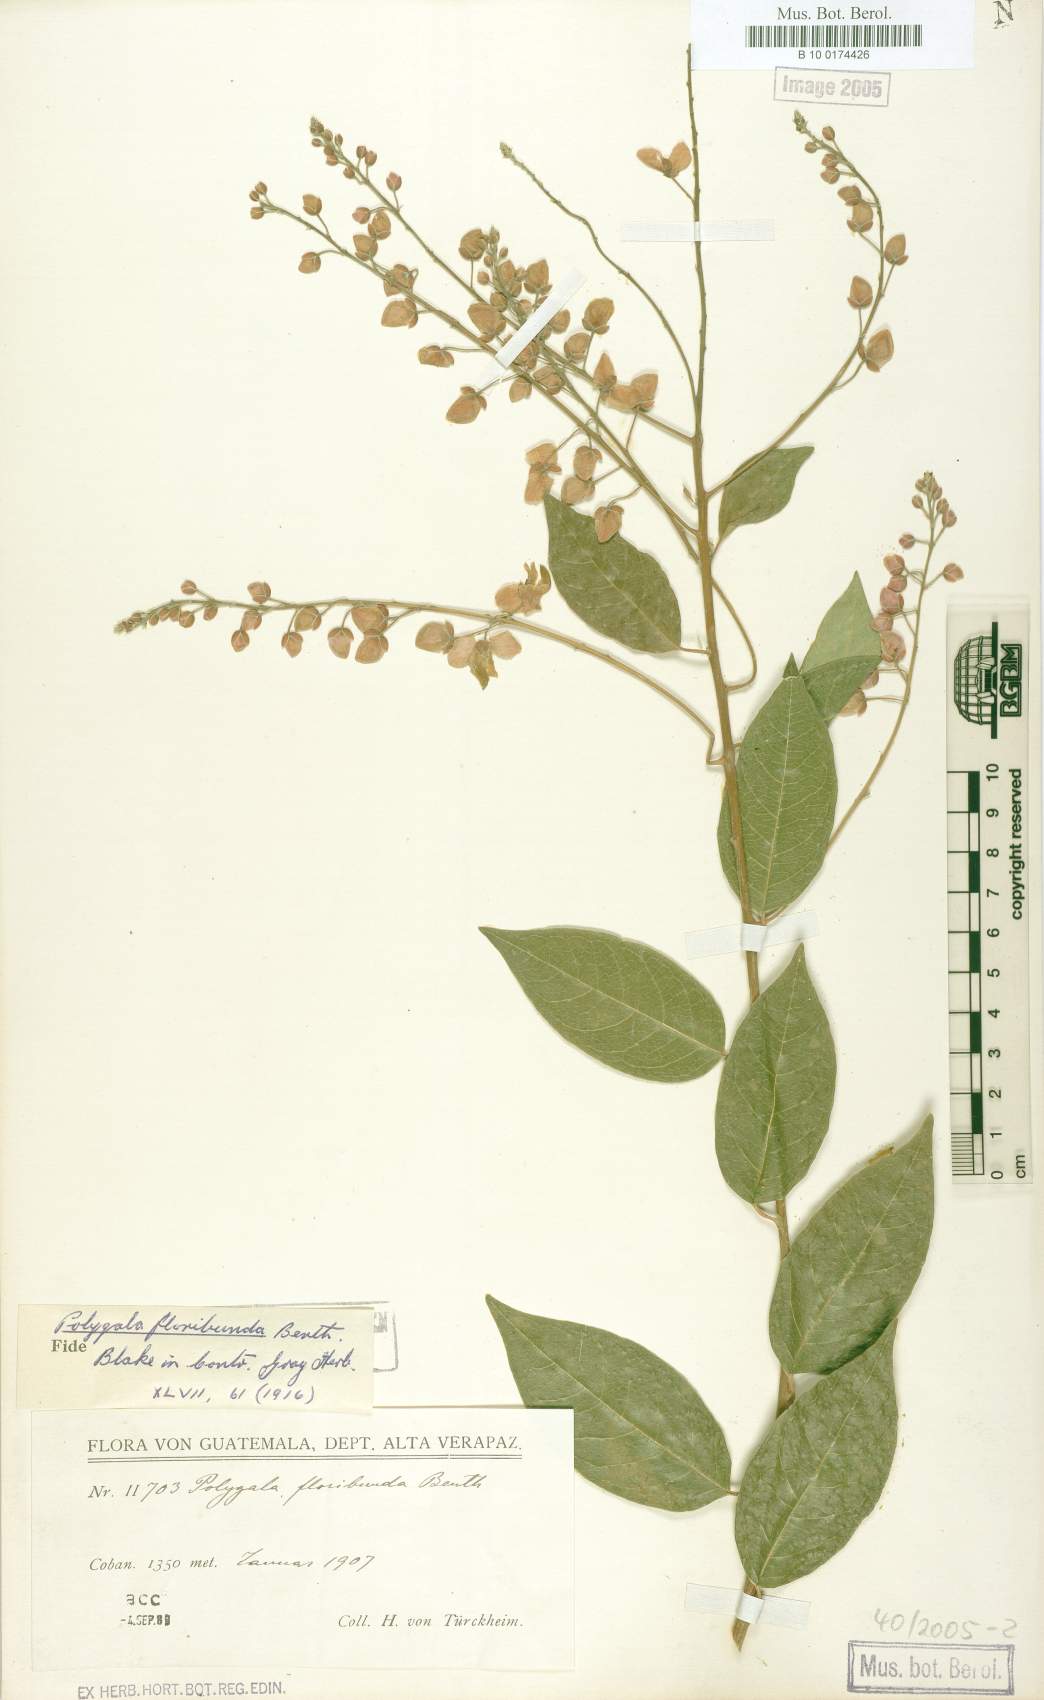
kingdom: Plantae
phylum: Tracheophyta
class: Magnoliopsida
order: Fabales
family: Polygalaceae
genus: Asemeia
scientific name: Asemeia floribunda
